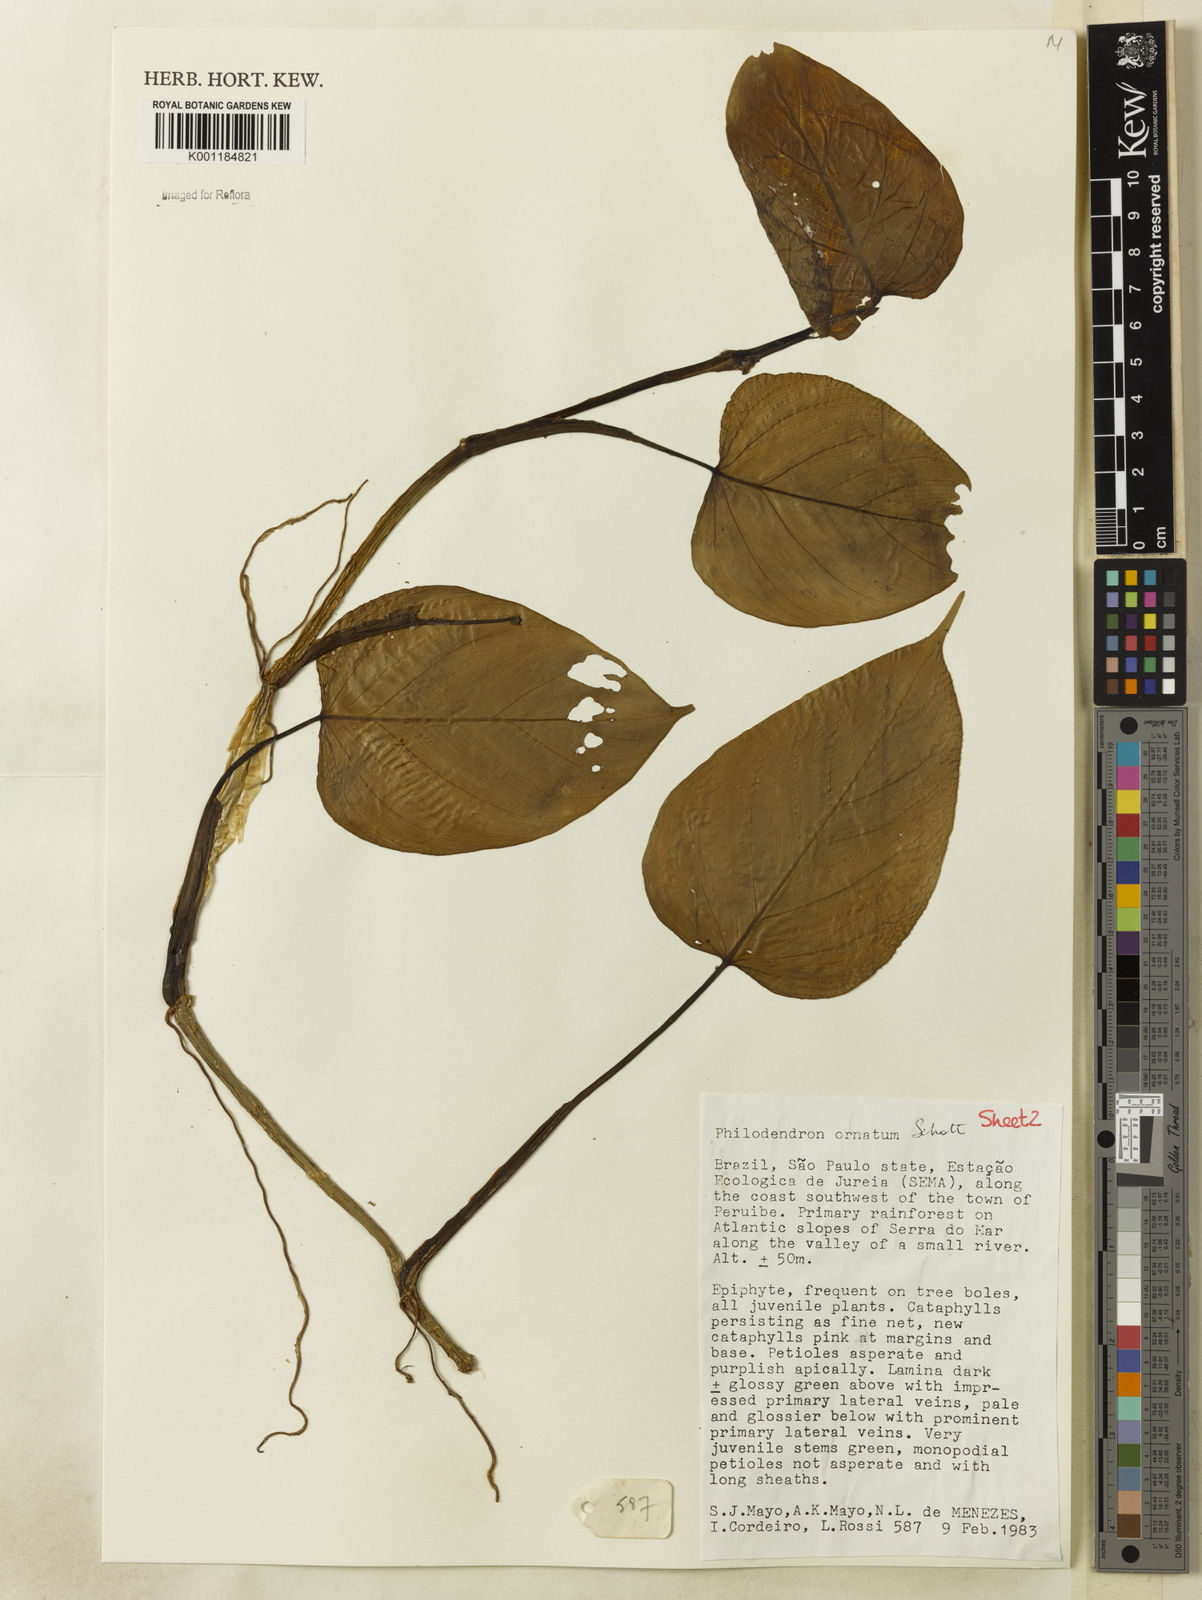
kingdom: Plantae
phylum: Tracheophyta
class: Liliopsida
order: Alismatales
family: Araceae
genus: Philodendron
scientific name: Philodendron ornatum
